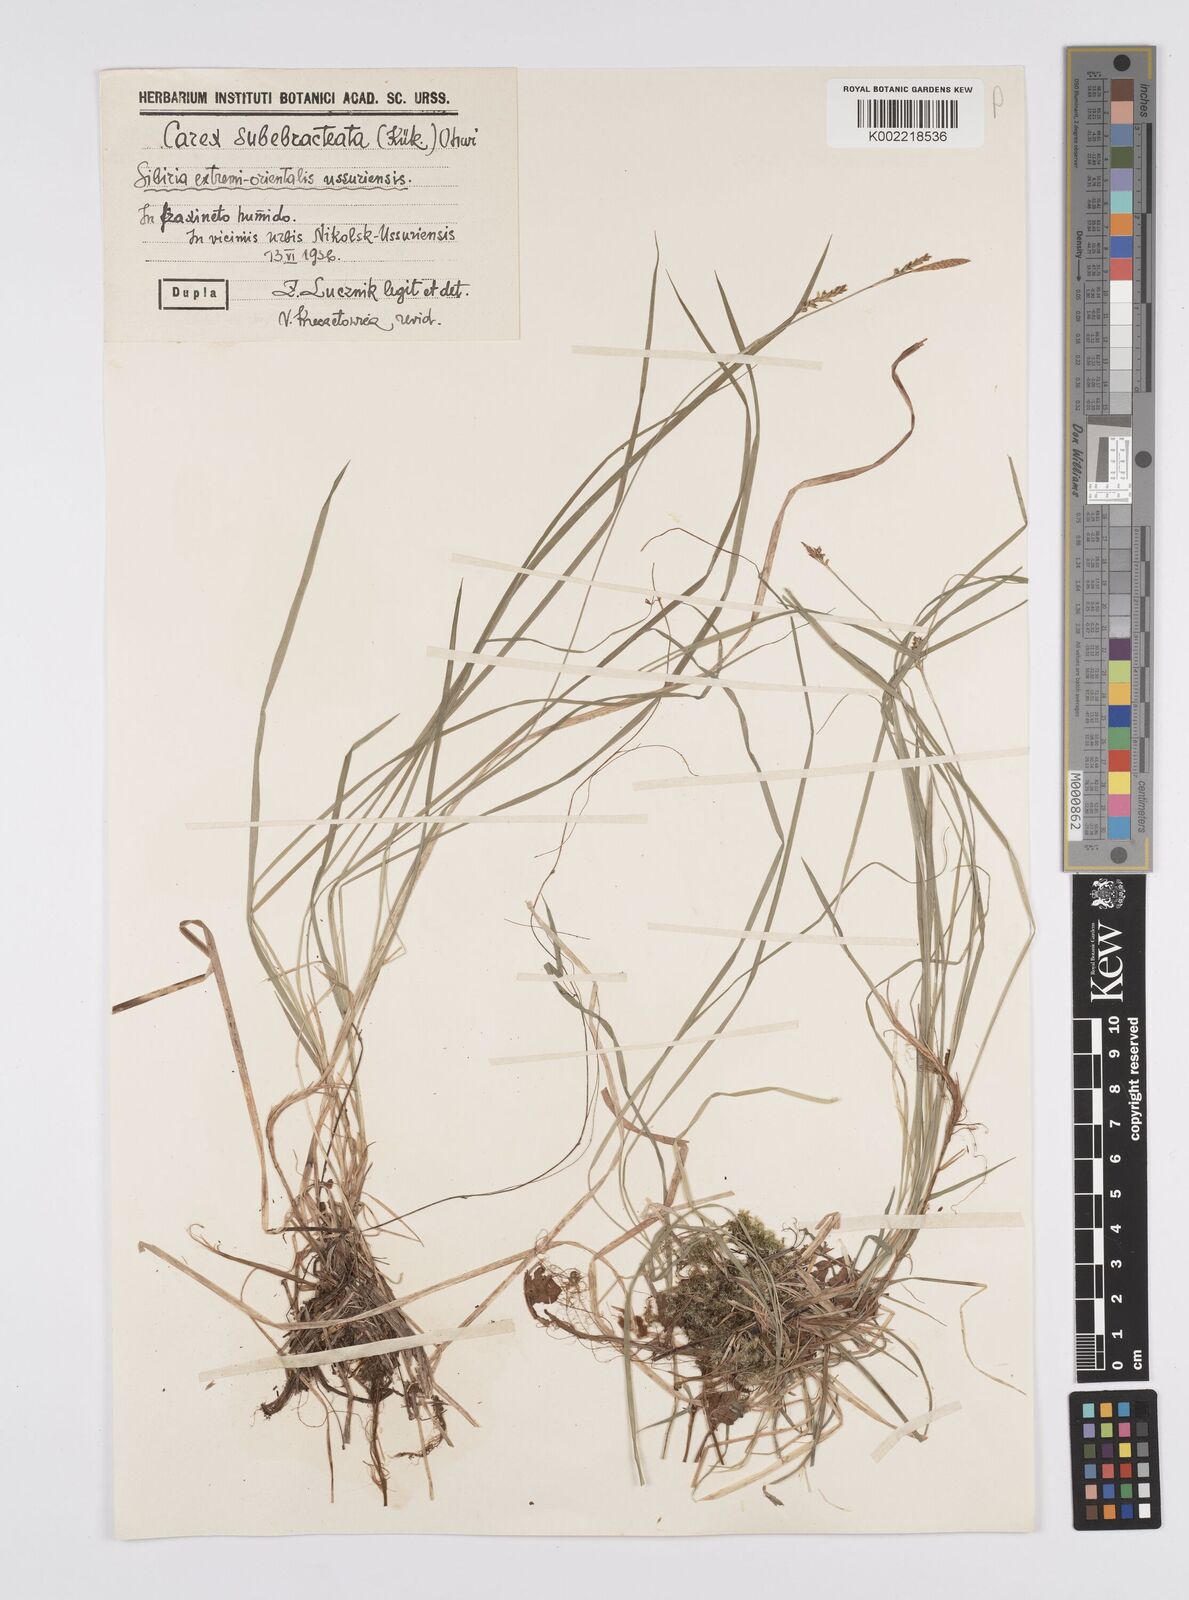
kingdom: Plantae
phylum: Tracheophyta
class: Liliopsida
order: Poales
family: Cyperaceae
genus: Carex
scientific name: Carex pisiformis
